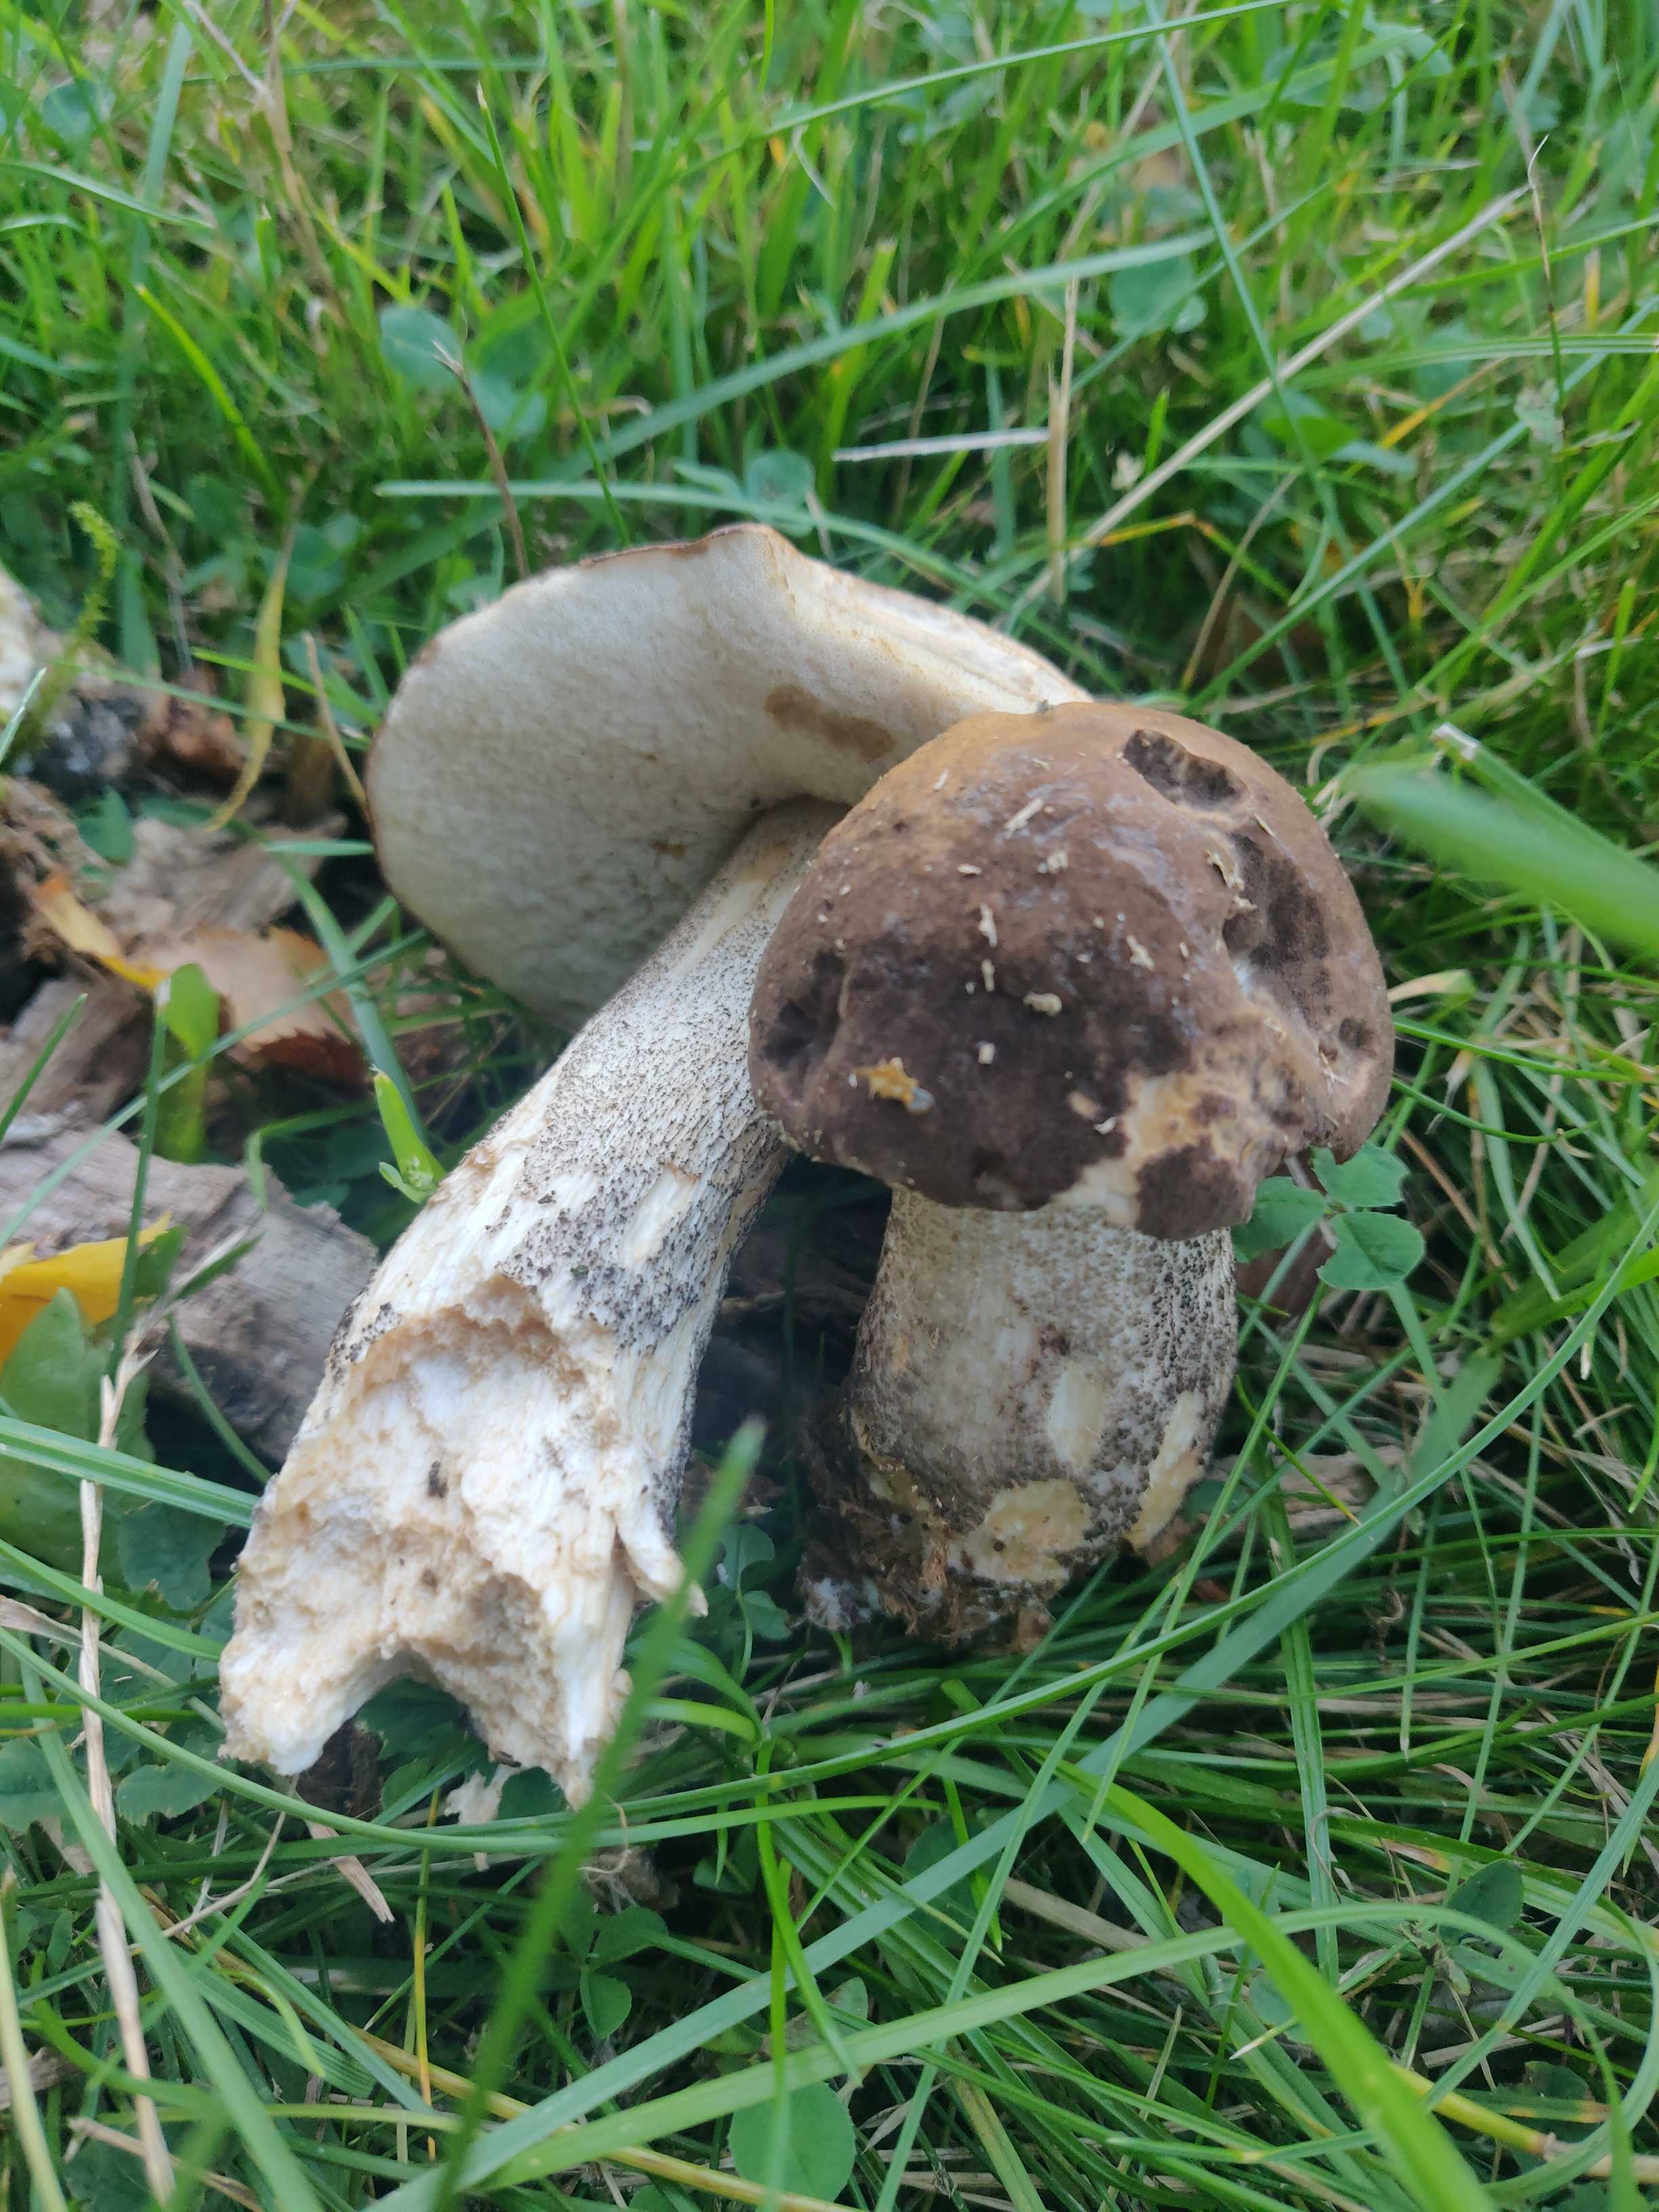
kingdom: Fungi
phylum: Basidiomycota
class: Agaricomycetes
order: Boletales
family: Boletaceae
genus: Leccinum
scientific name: Leccinum scabrum
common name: brun skælrørhat
